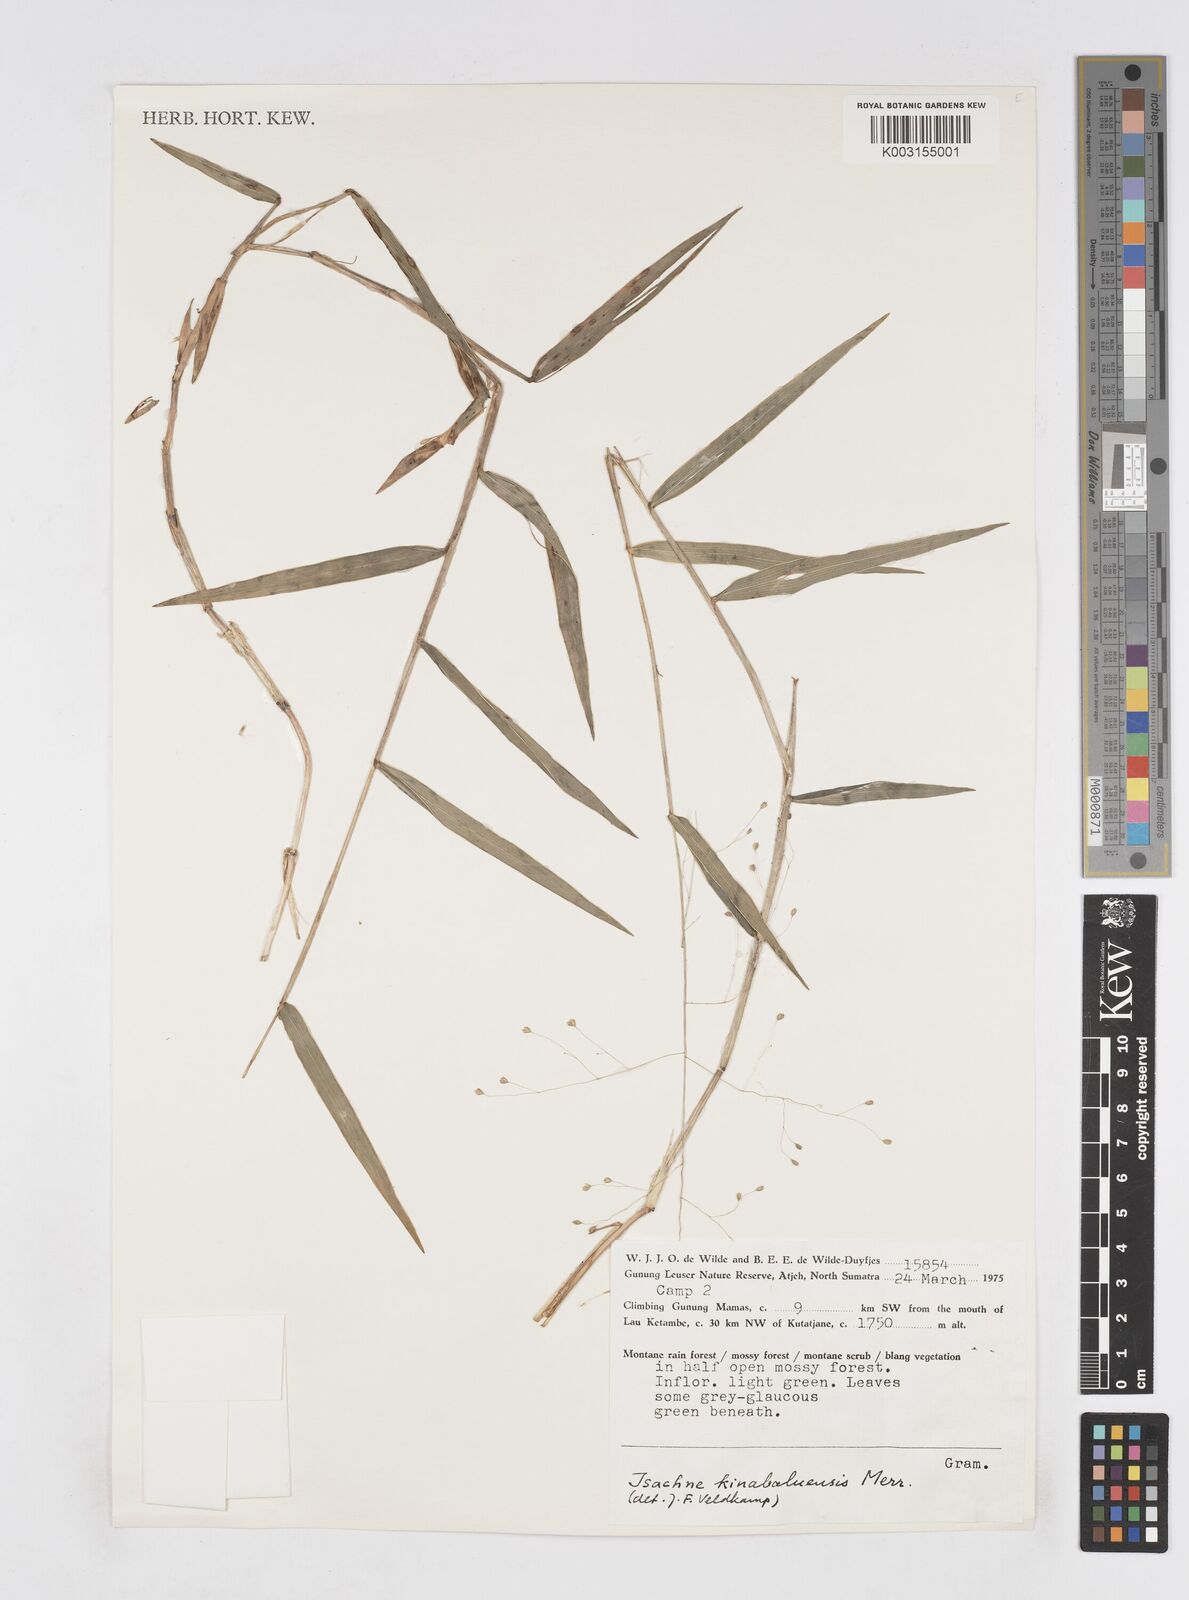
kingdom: Plantae
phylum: Tracheophyta
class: Liliopsida
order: Poales
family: Poaceae
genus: Isachne
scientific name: Isachne kinabaluensis
